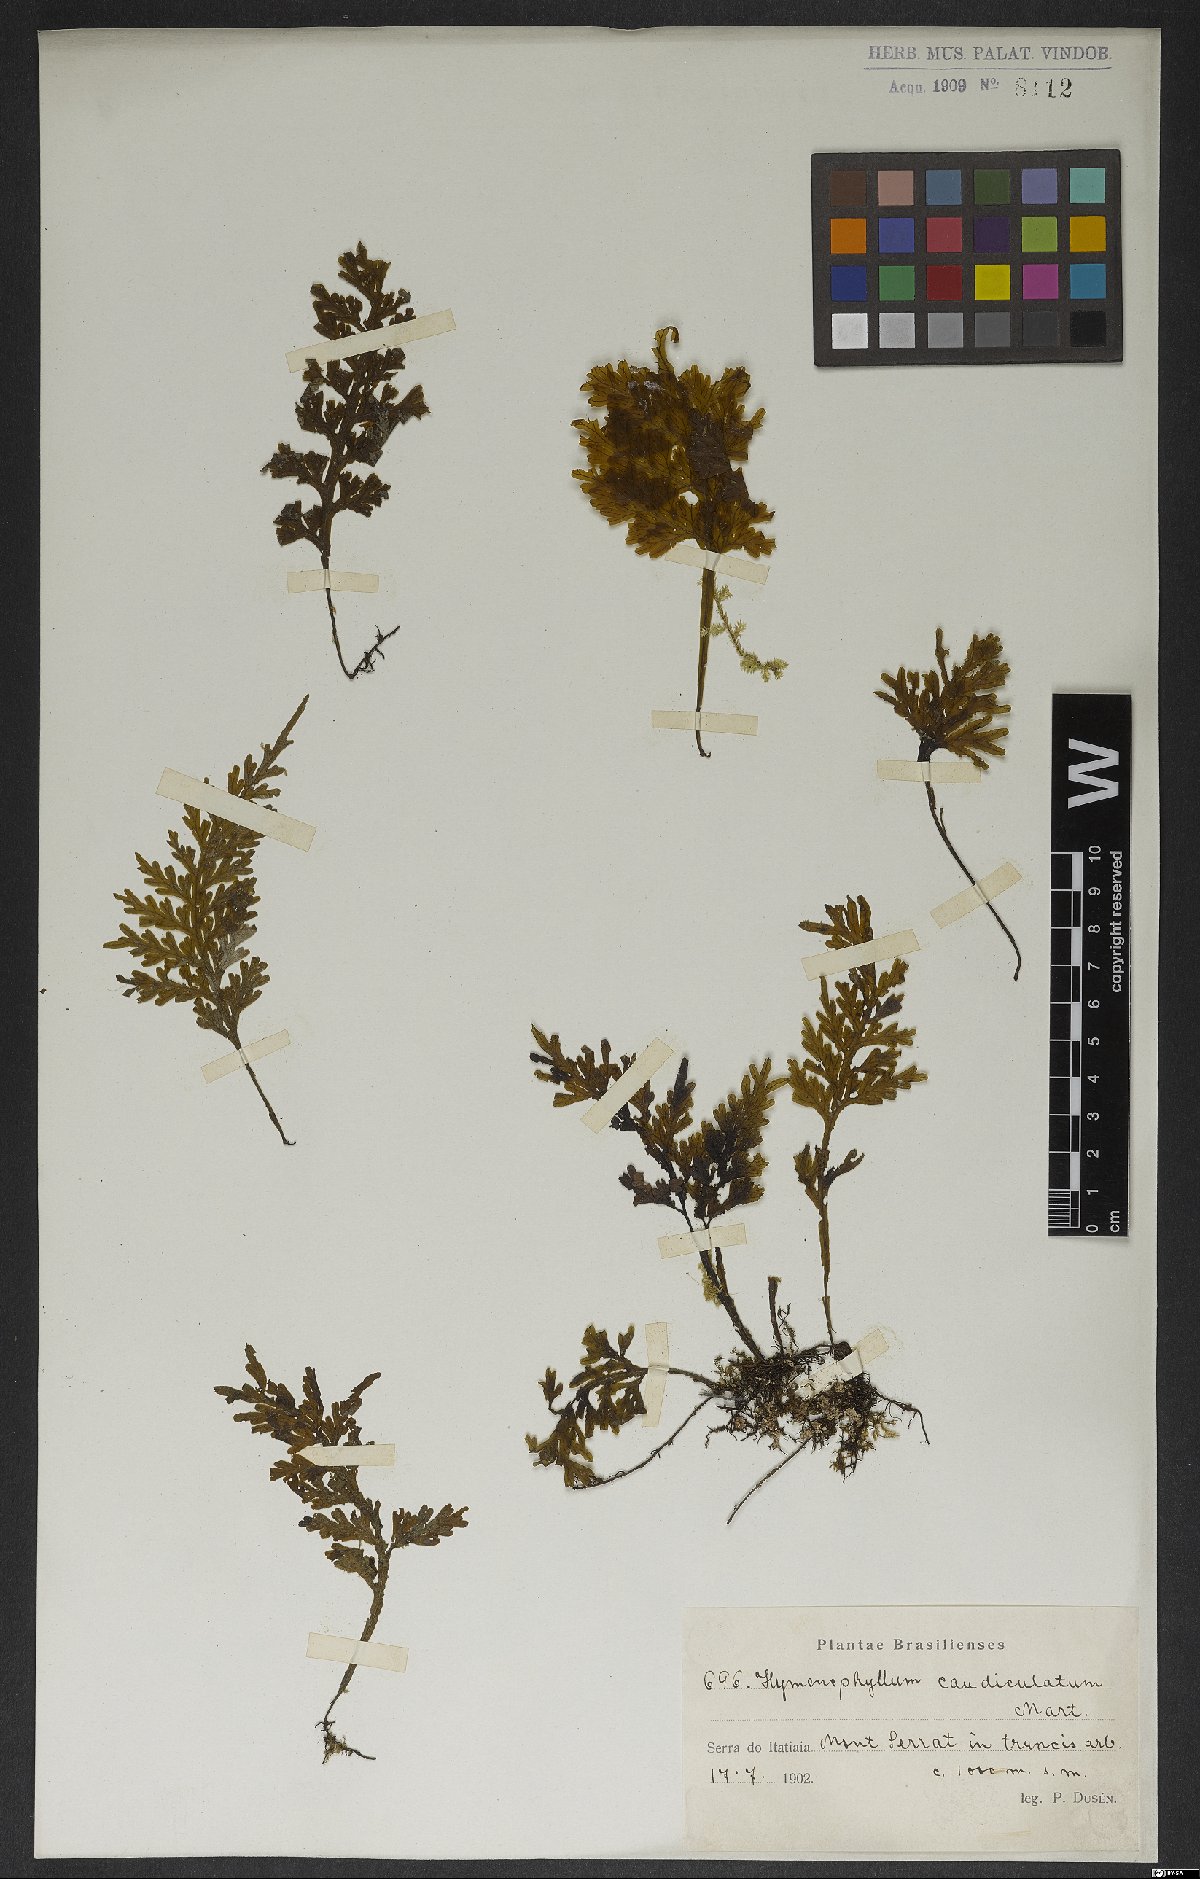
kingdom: Plantae
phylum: Tracheophyta
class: Polypodiopsida
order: Hymenophyllales
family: Hymenophyllaceae
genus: Hymenophyllum
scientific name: Hymenophyllum caudiculatum
